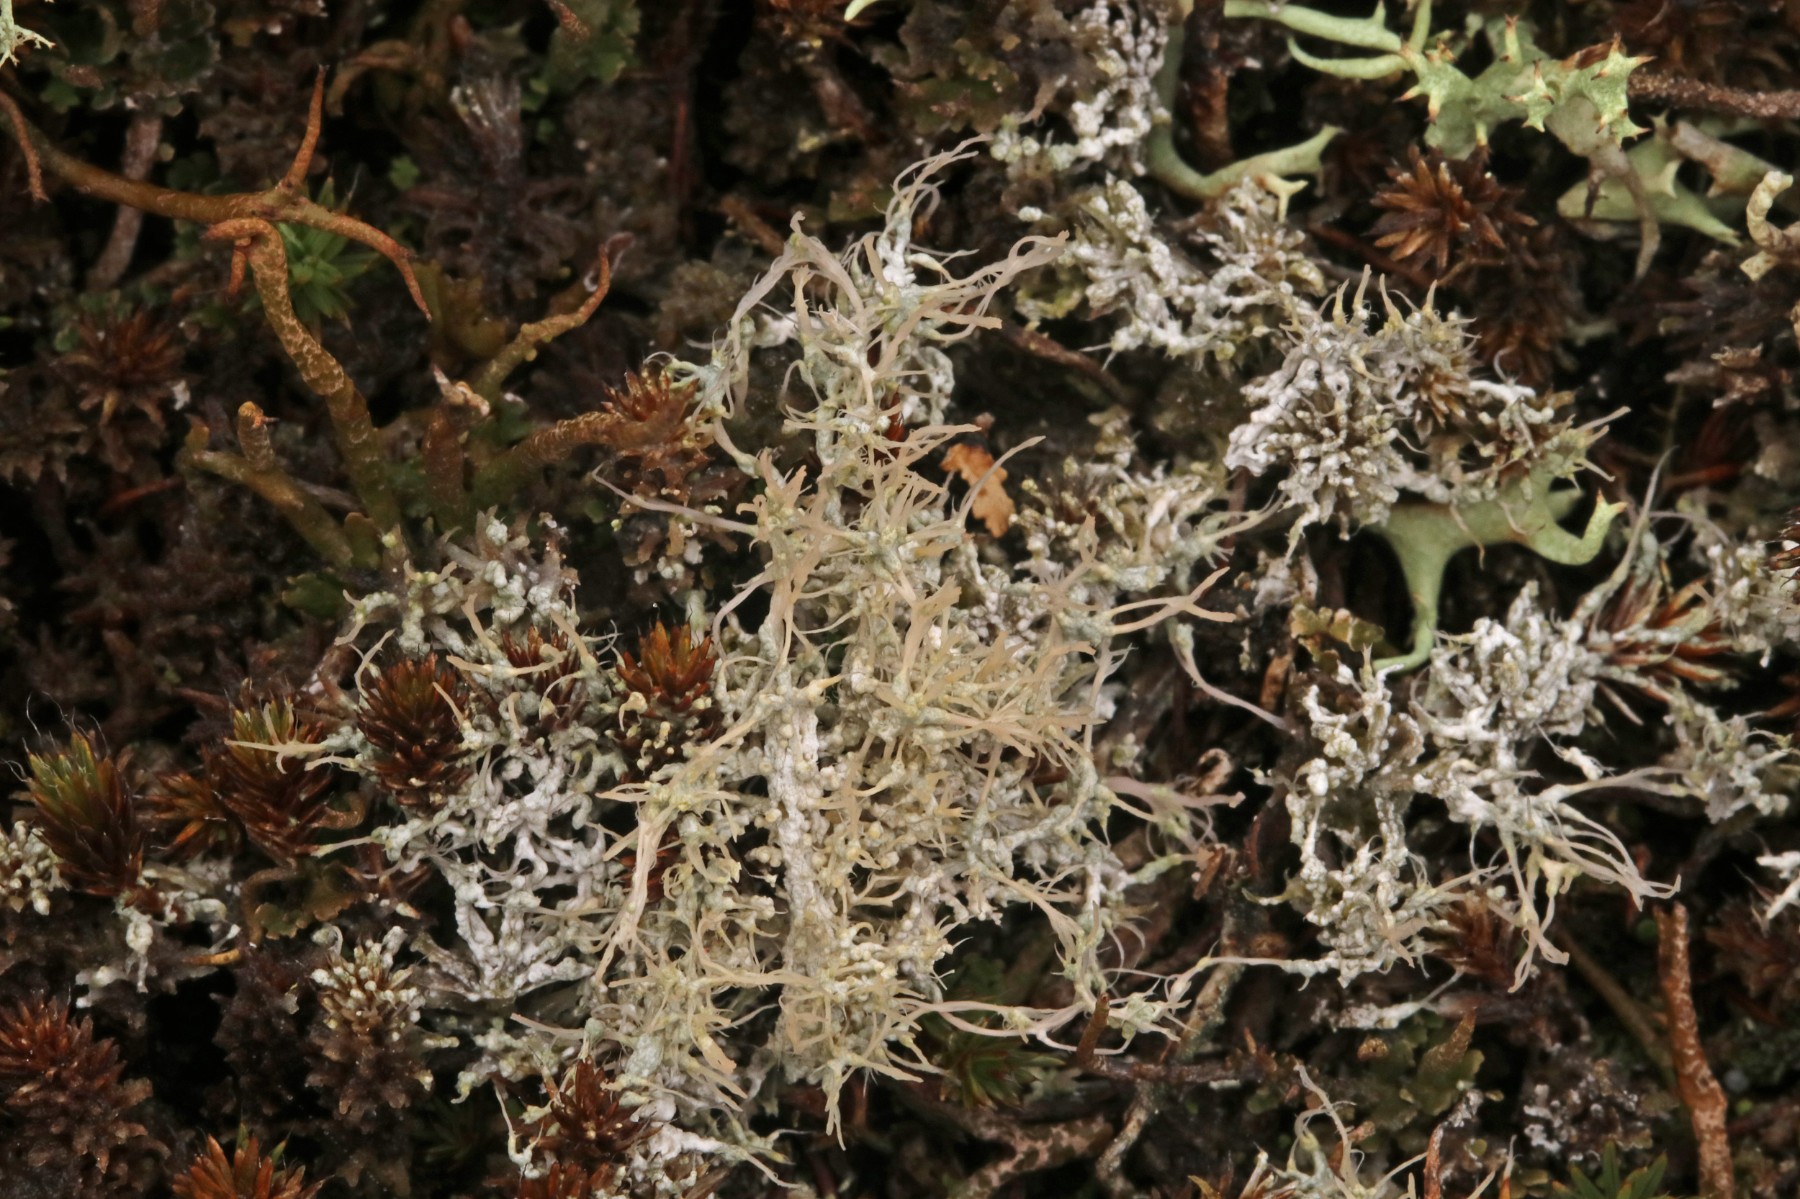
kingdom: Fungi
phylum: Ascomycota
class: Lecanoromycetes
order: Pertusariales
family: Ochrolechiaceae
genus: Ochrolechia
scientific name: Ochrolechia frigida
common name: fjeld-blegskivelav
